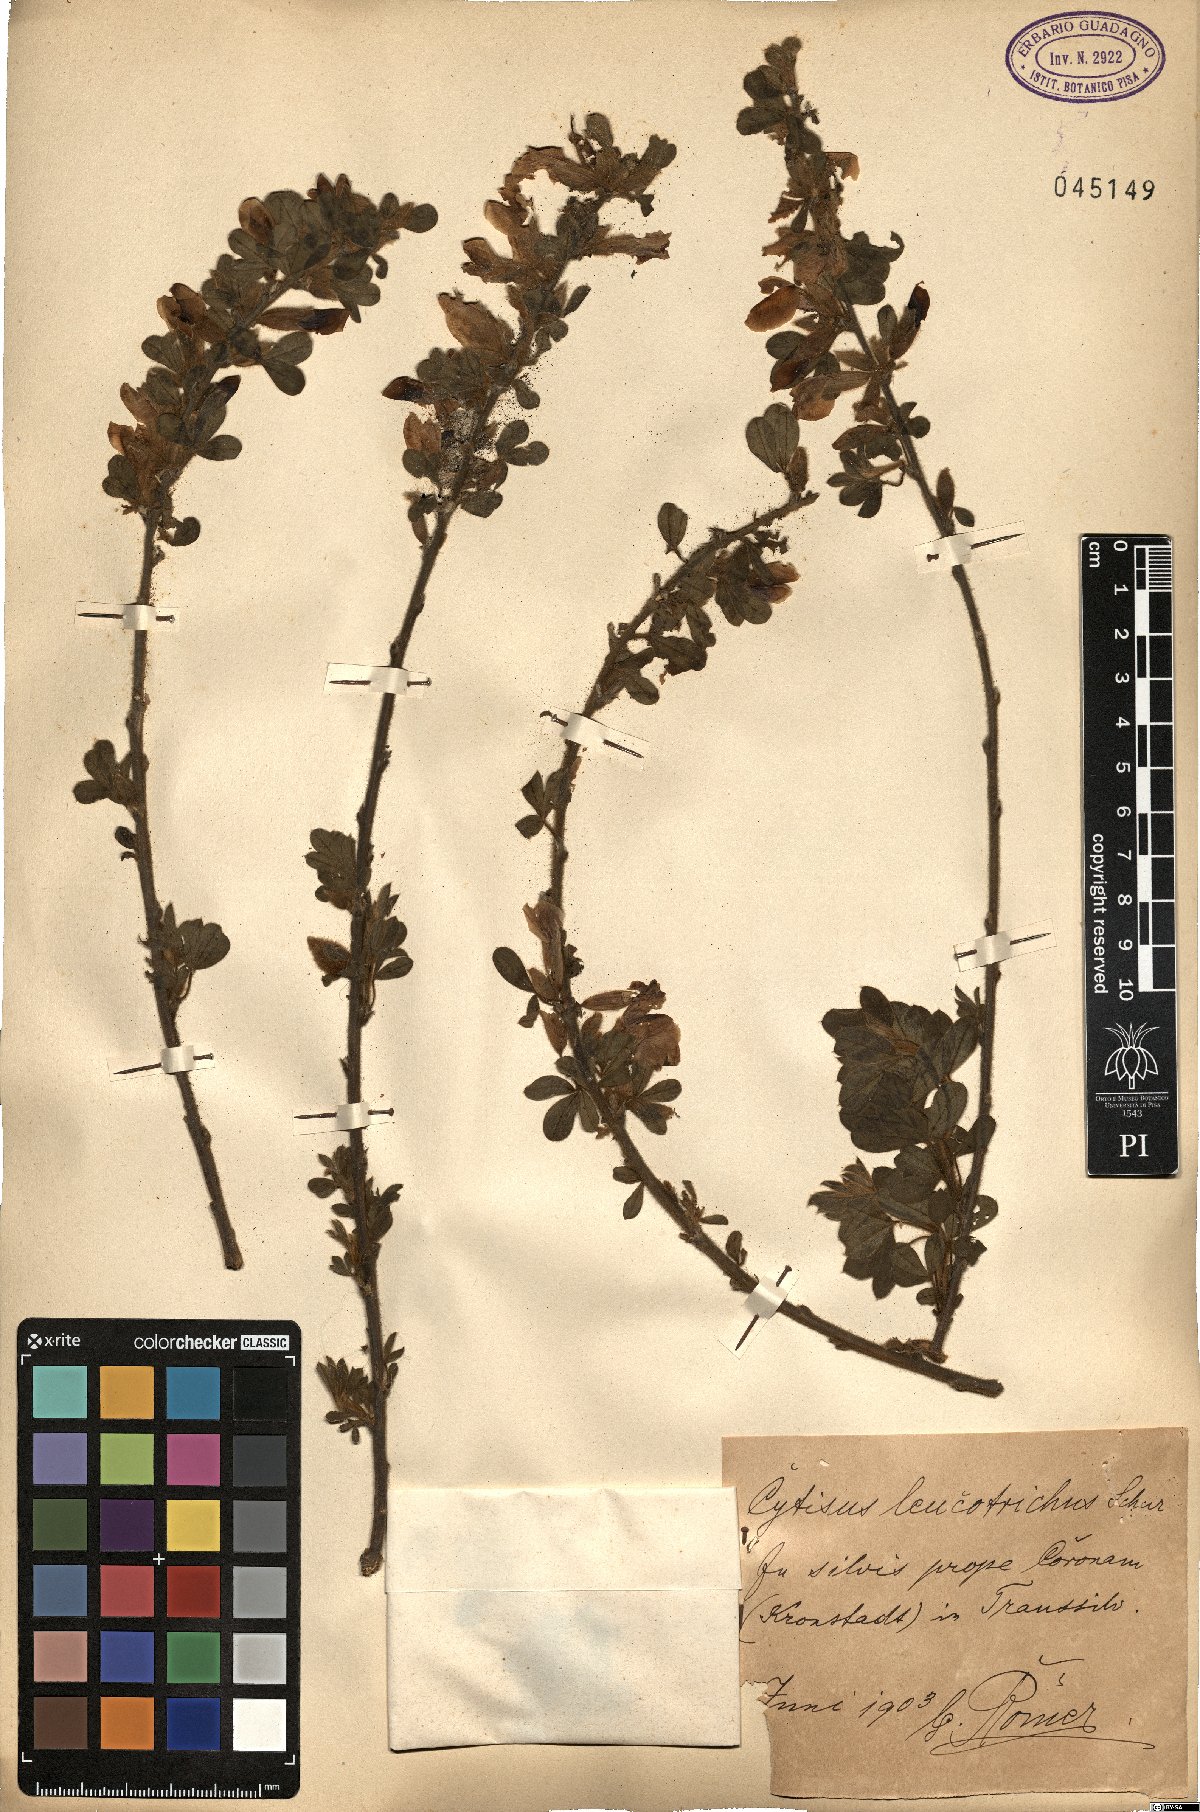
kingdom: Plantae
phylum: Tracheophyta
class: Magnoliopsida
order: Fabales
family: Fabaceae
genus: Chamaecytisus
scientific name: Chamaecytisus triflorus
